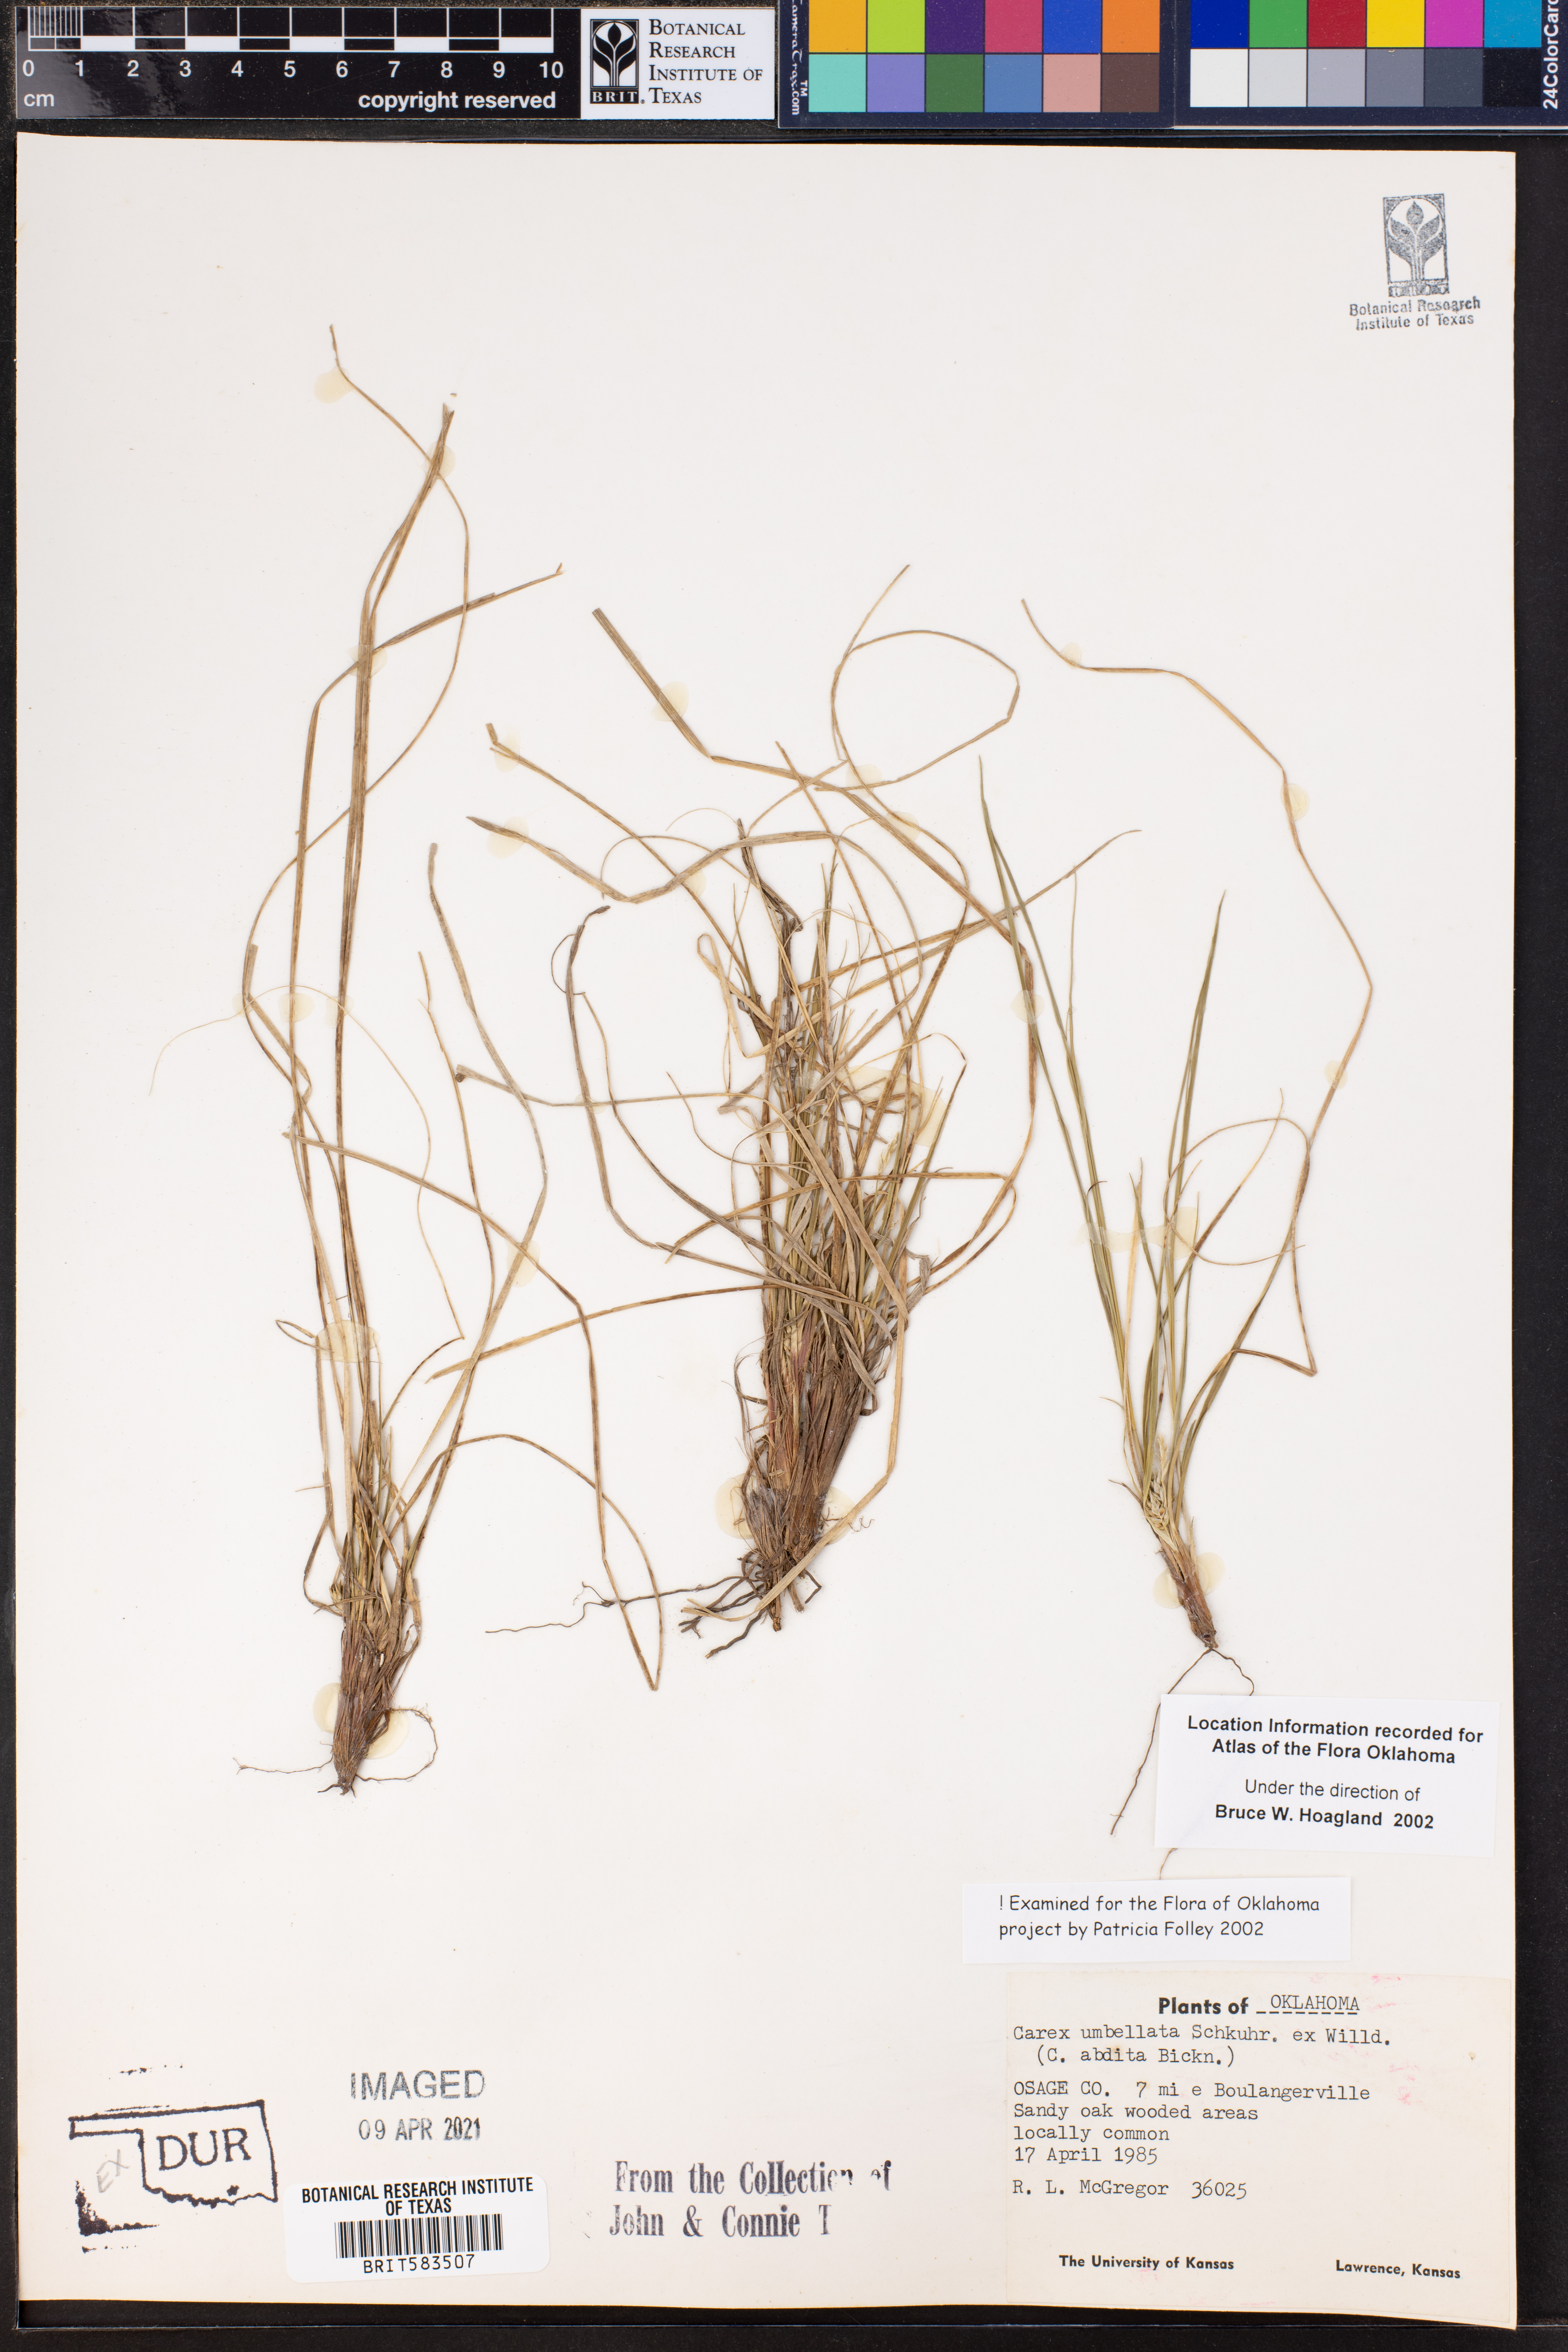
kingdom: Plantae
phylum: Tracheophyta
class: Liliopsida
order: Poales
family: Cyperaceae
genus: Carex
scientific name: Carex umbellata
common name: Early oak sedge
